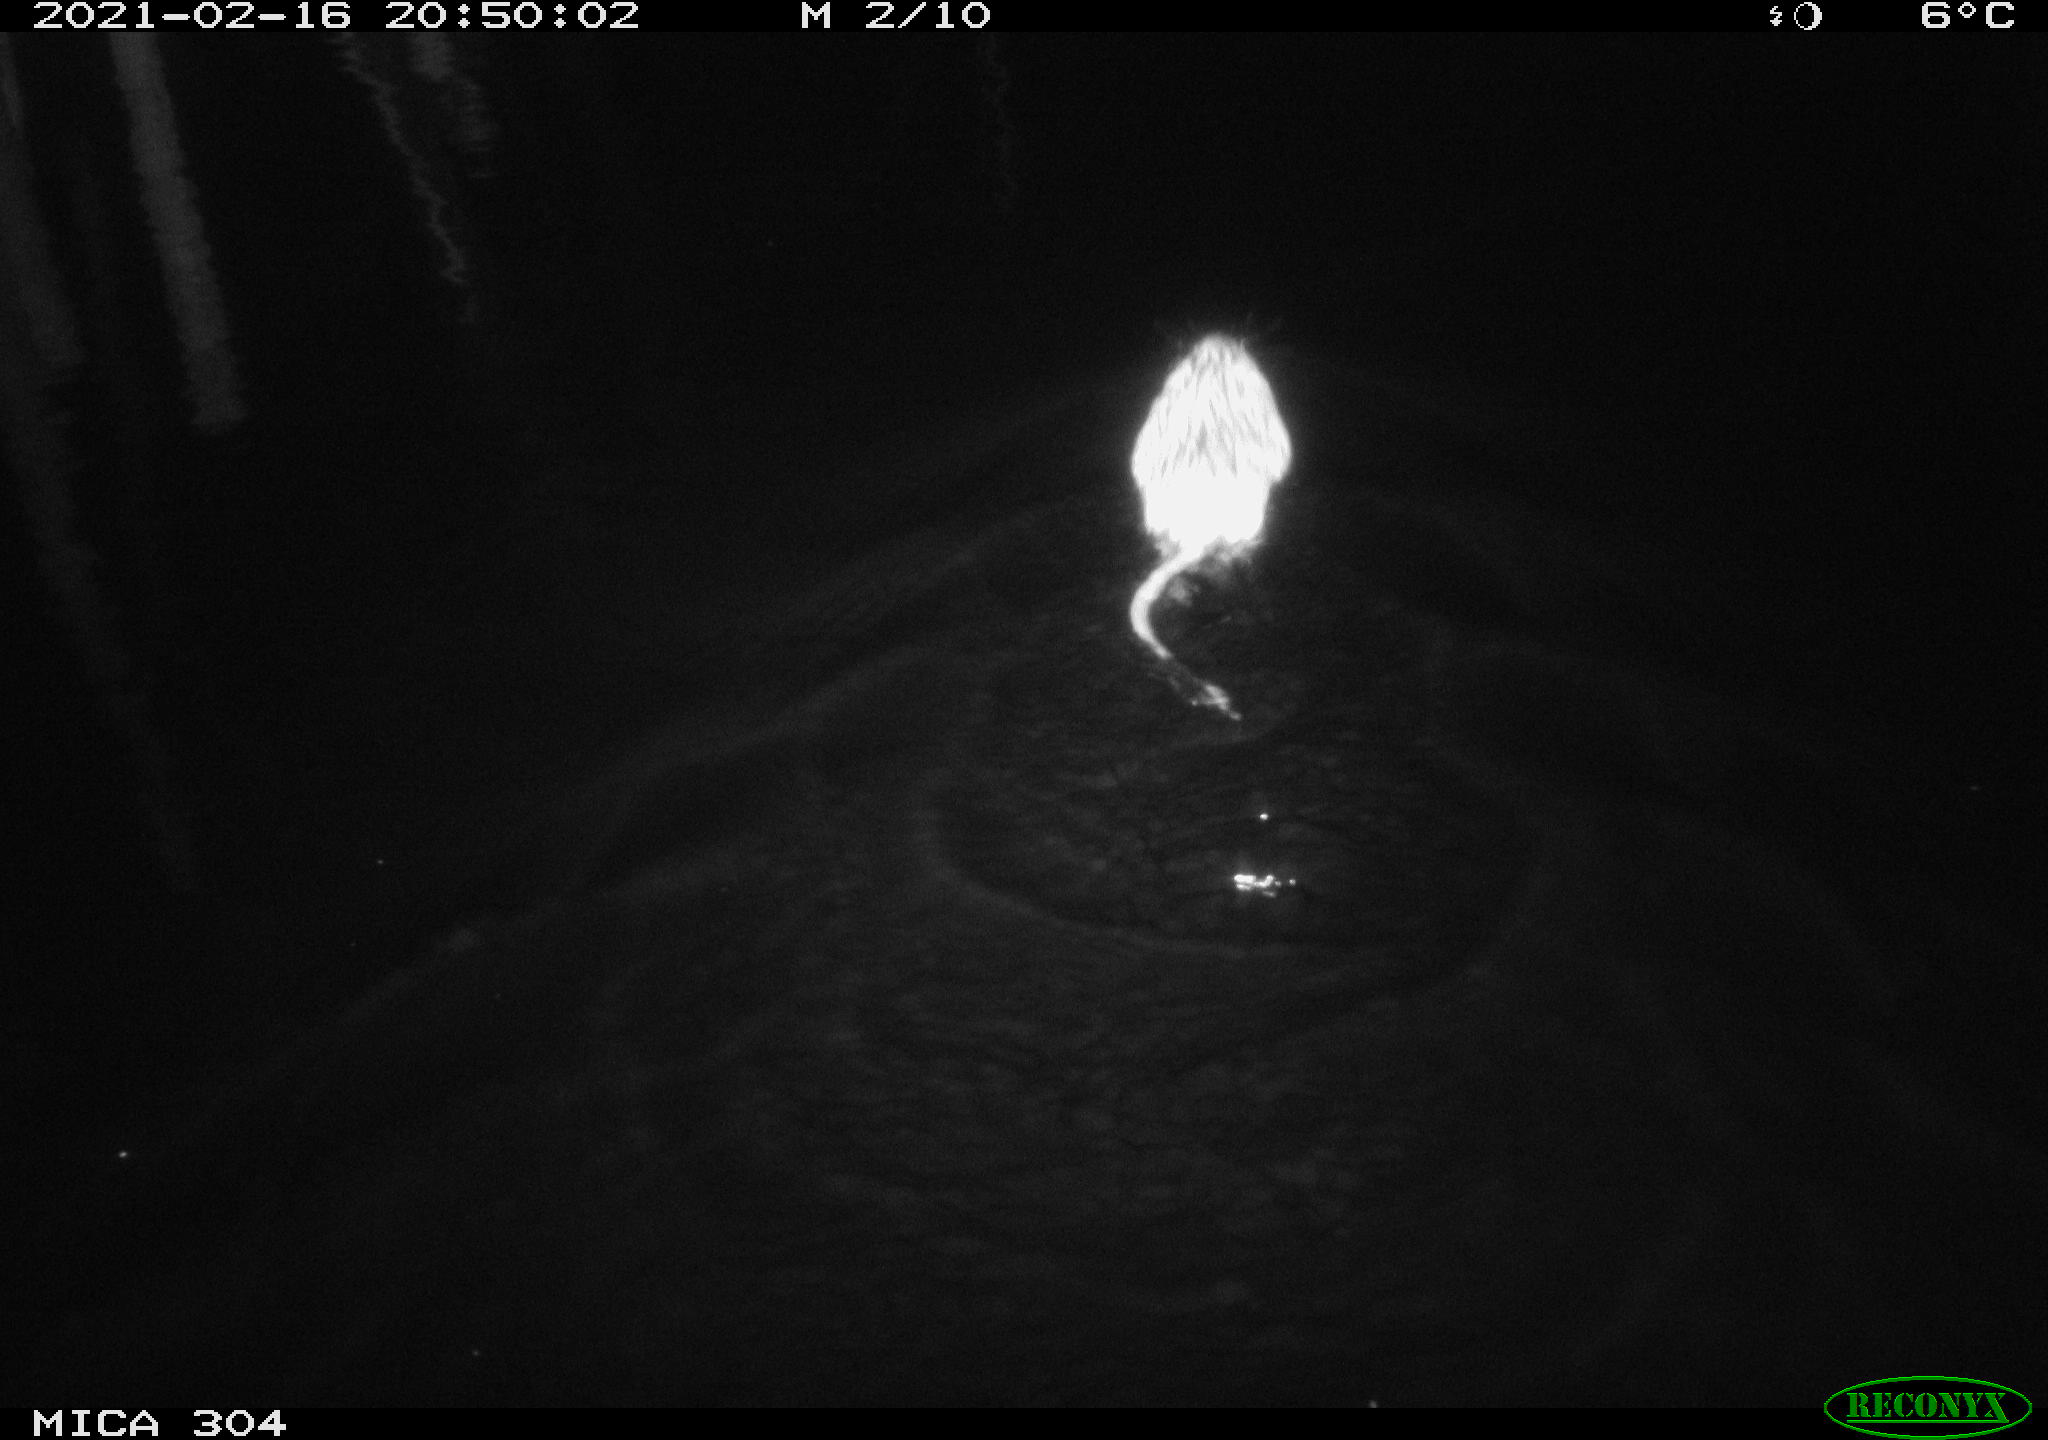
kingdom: Animalia
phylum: Chordata
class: Mammalia
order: Rodentia
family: Cricetidae
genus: Ondatra
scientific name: Ondatra zibethicus
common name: Muskrat
